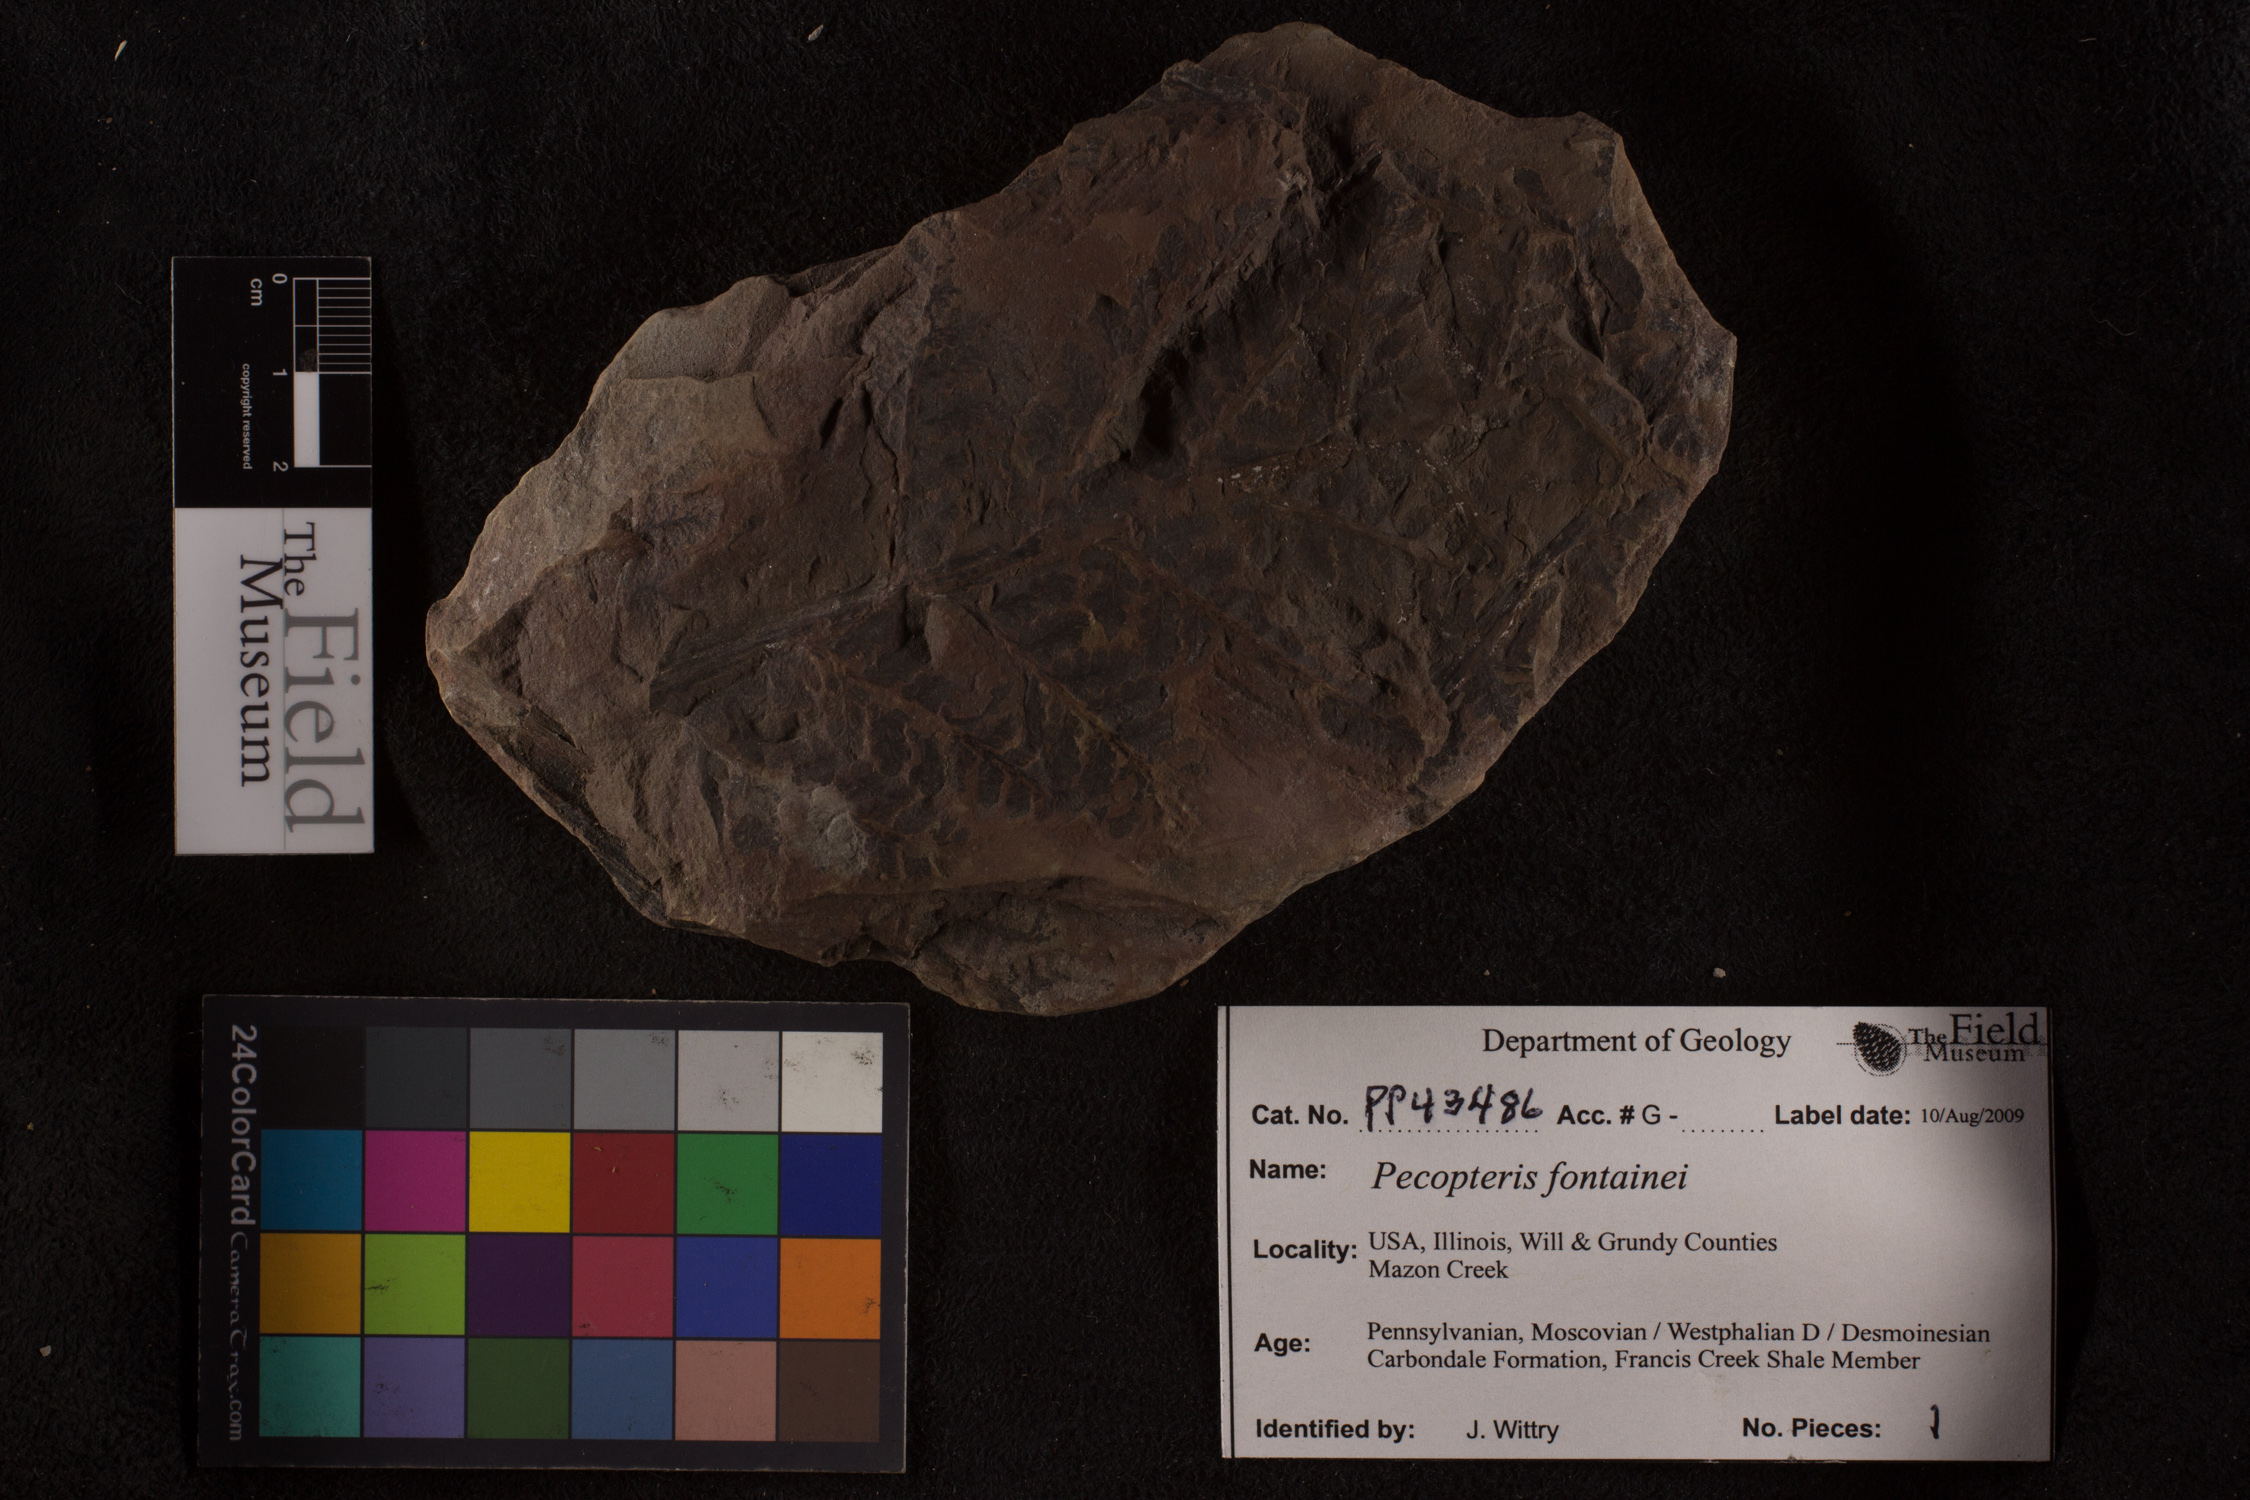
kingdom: Plantae
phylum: Tracheophyta
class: Polypodiopsida
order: Marattiales
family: Asterothecaceae
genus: Pecopteris
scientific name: Pecopteris
